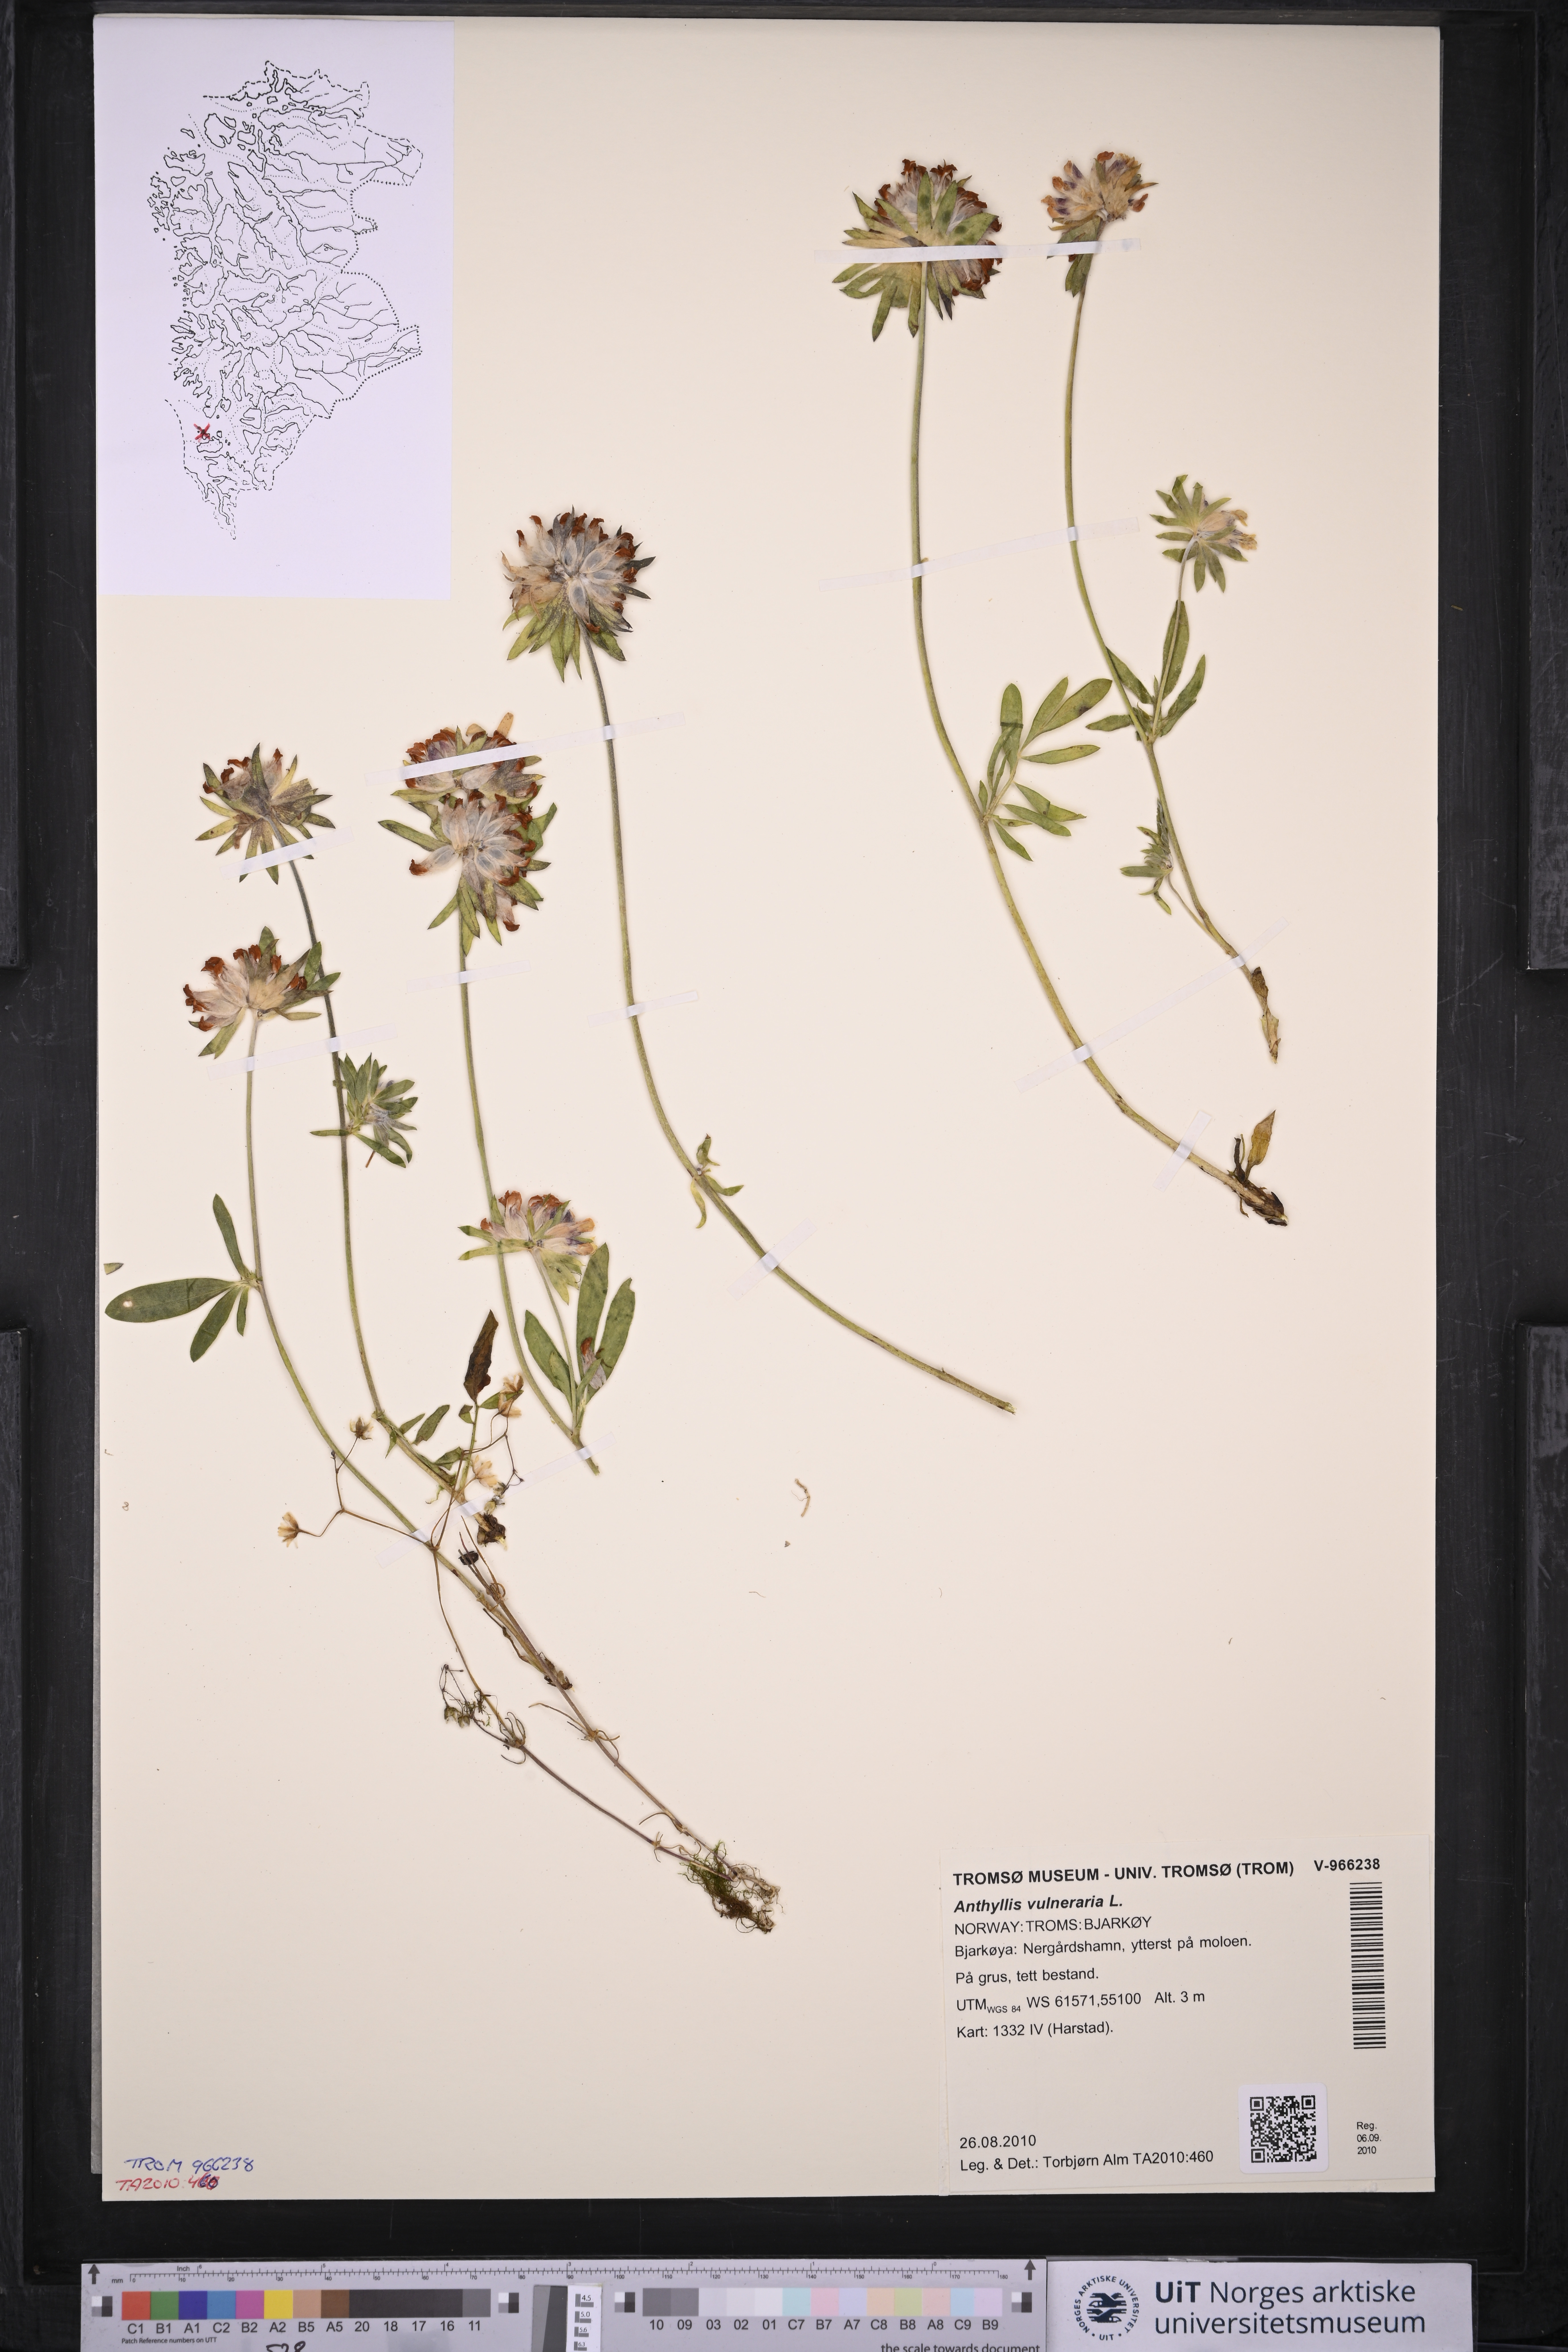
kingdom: Plantae
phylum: Tracheophyta
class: Magnoliopsida
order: Fabales
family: Fabaceae
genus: Anthyllis
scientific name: Anthyllis vulneraria
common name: Kidney vetch
